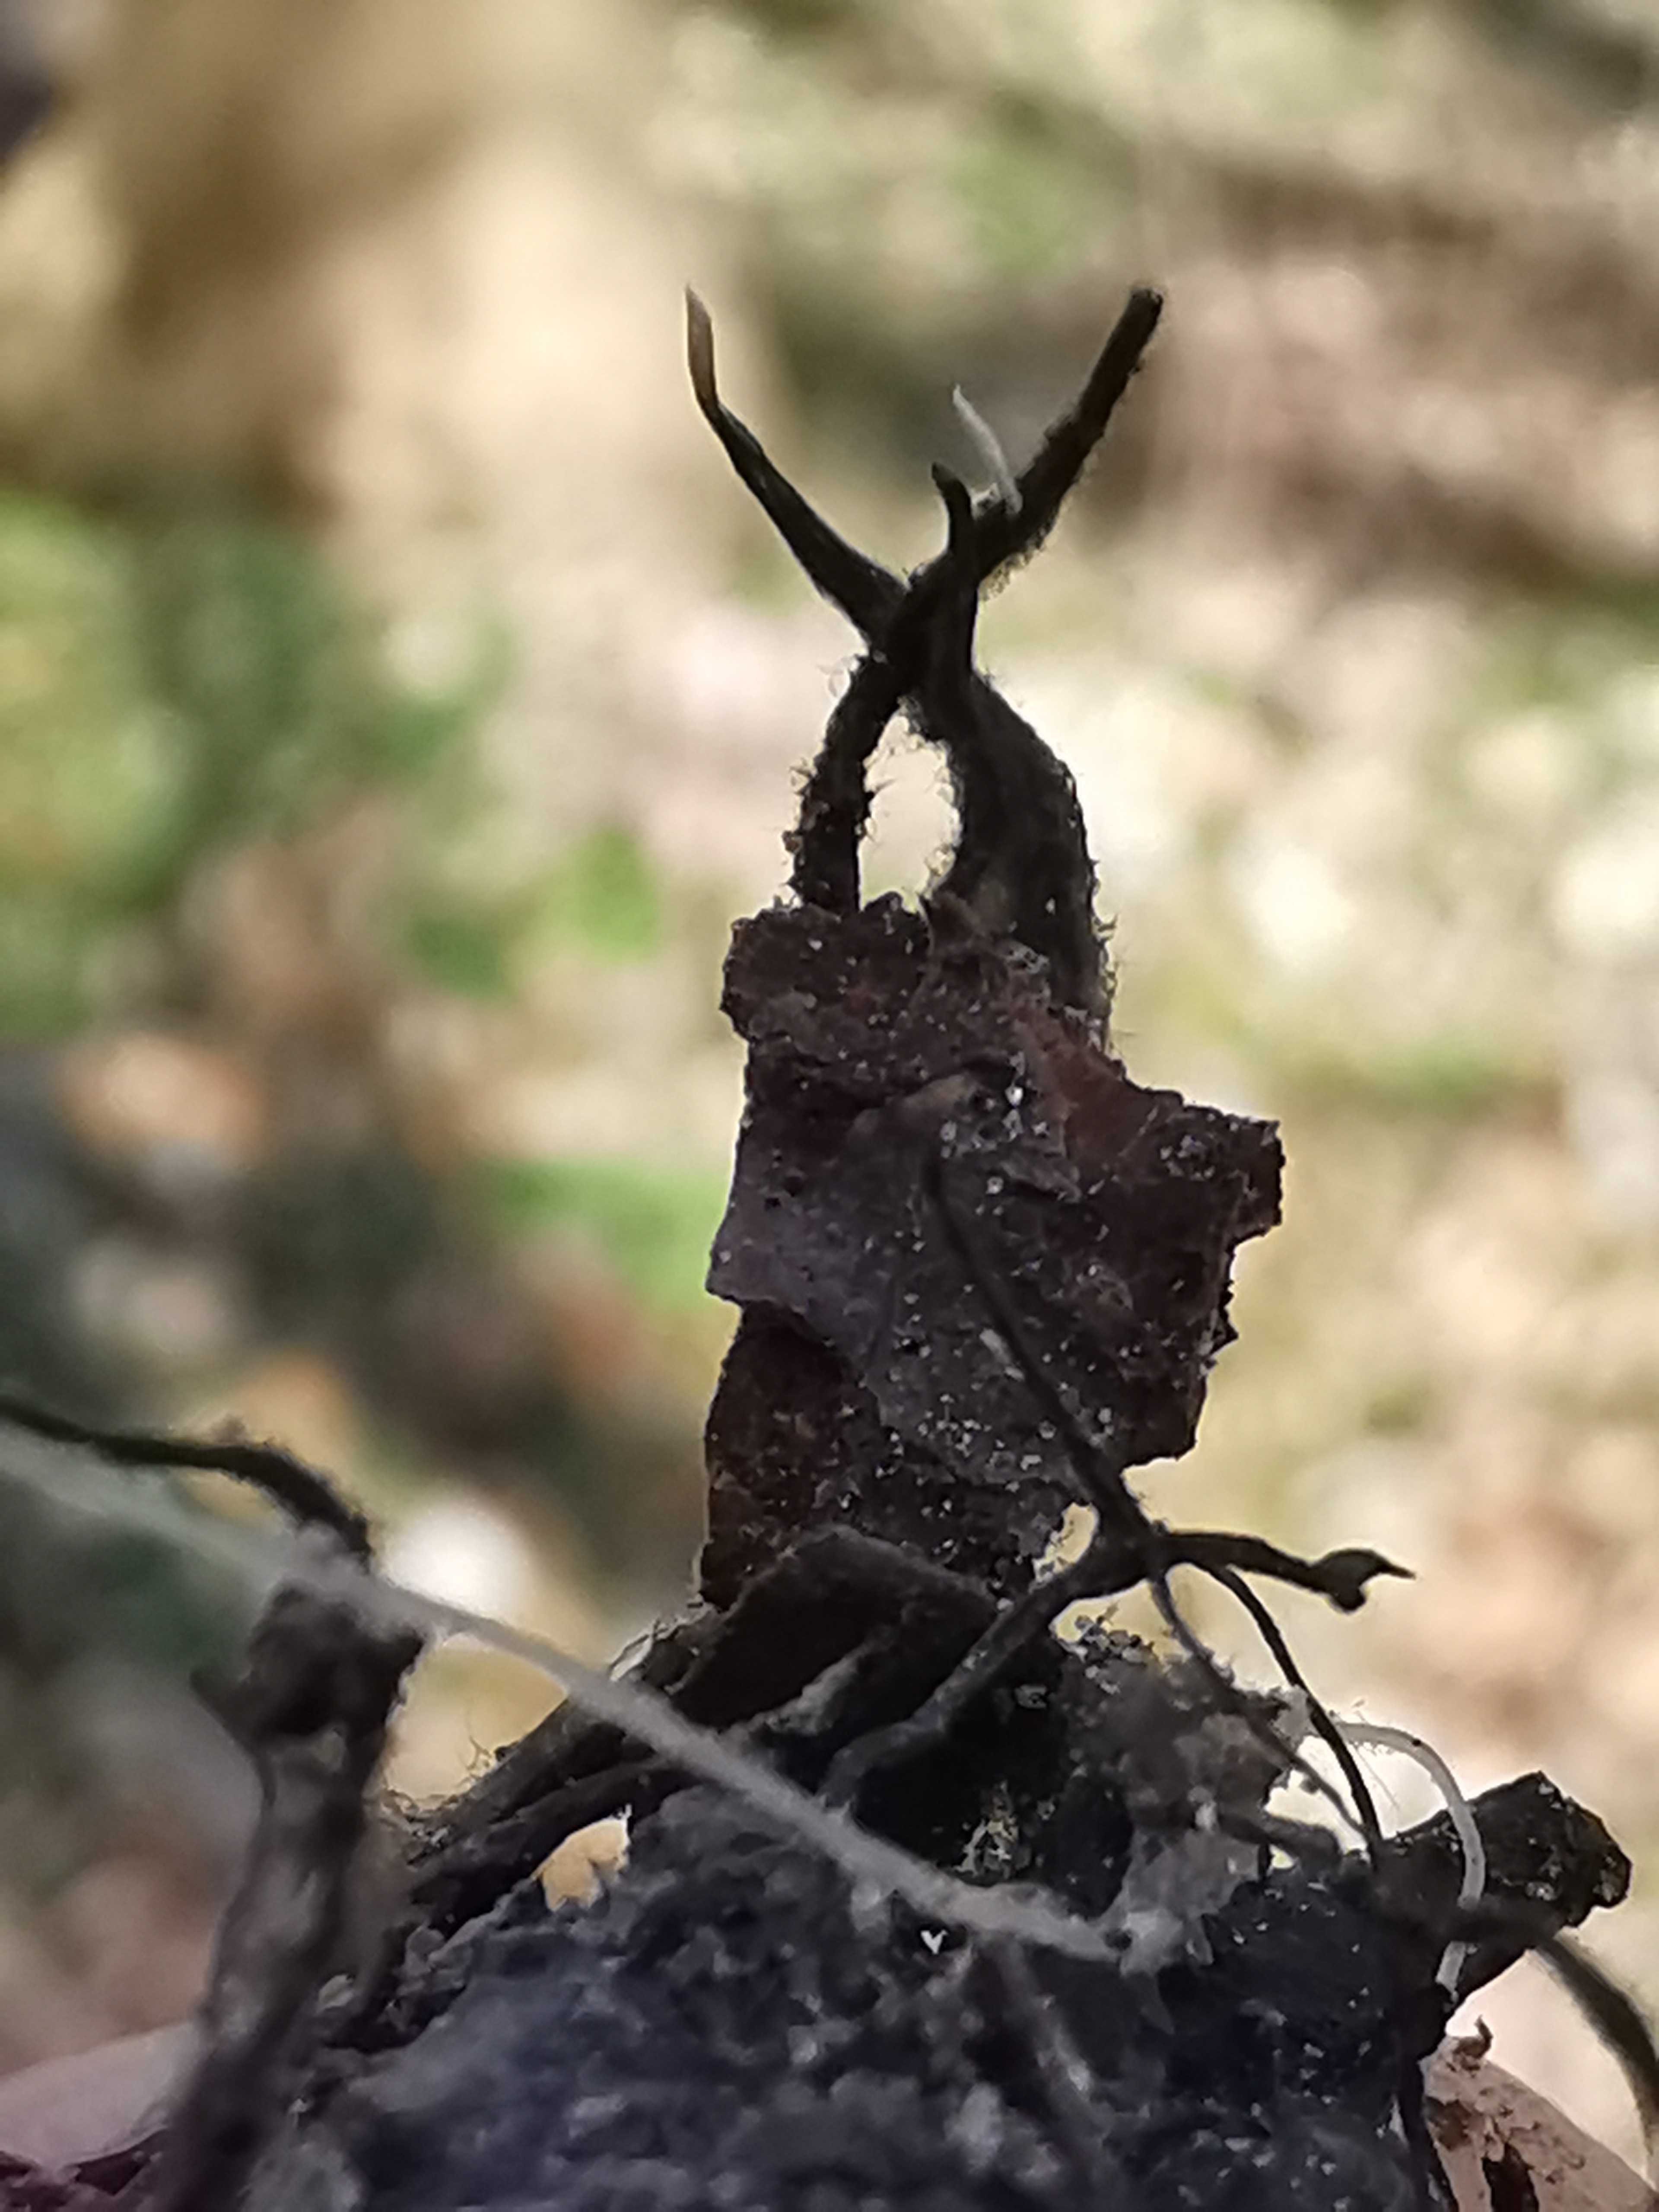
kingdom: Fungi
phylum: Ascomycota
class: Sordariomycetes
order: Xylariales
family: Xylariaceae
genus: Xylaria
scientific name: Xylaria carpophila
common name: bogskål-stødsvamp
